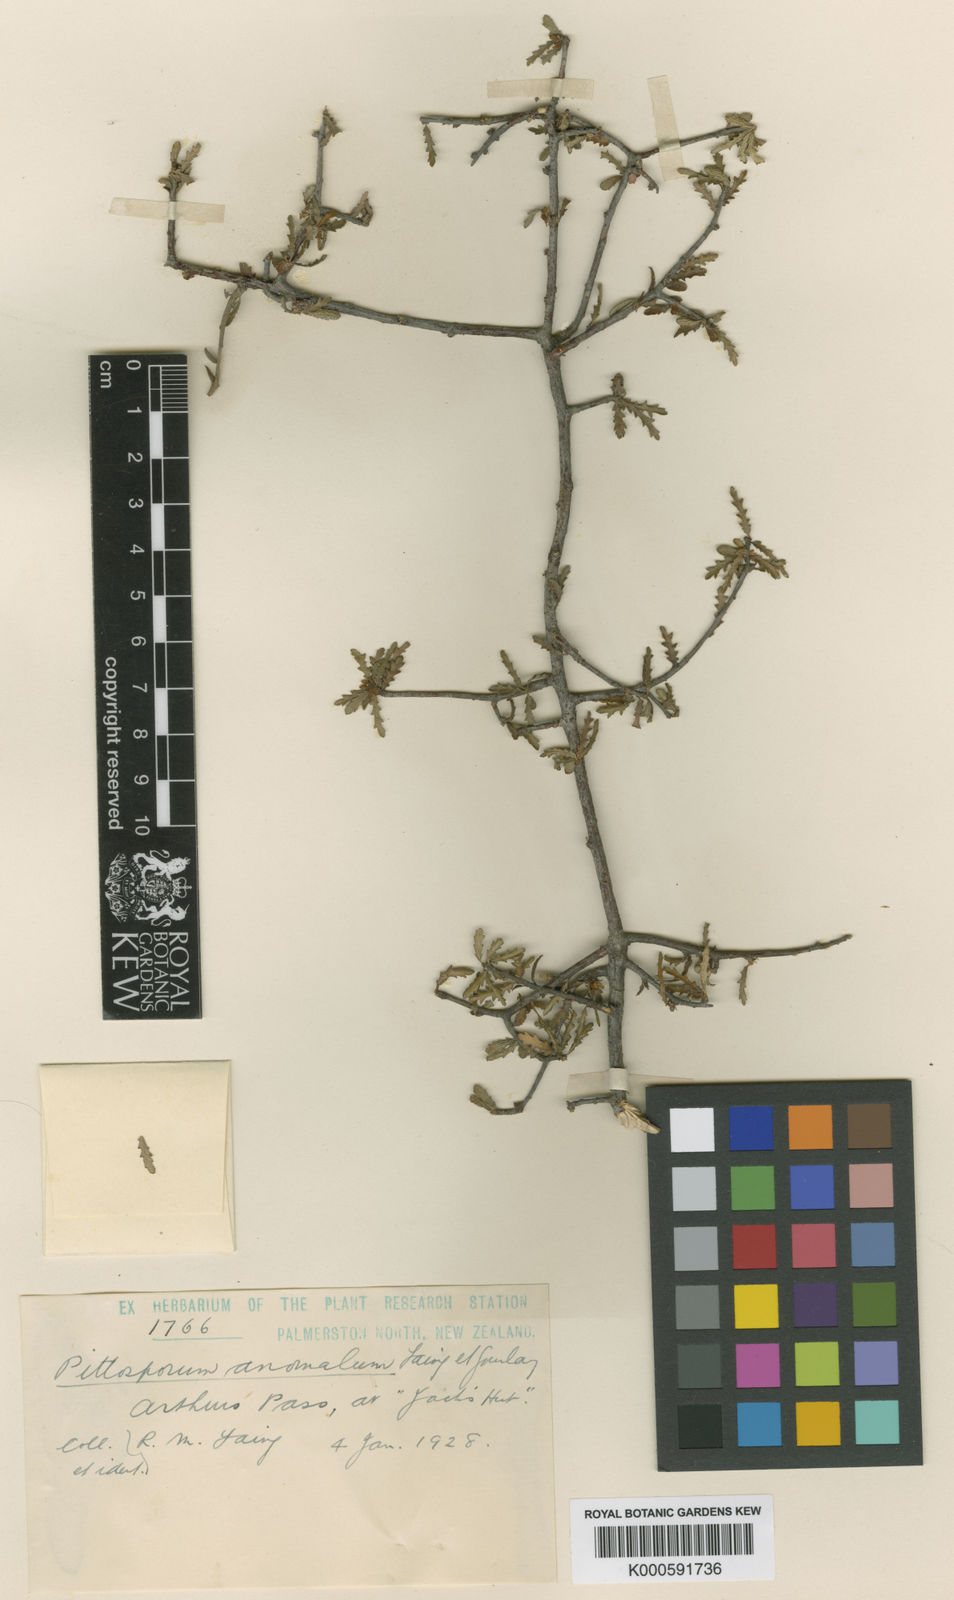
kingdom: Plantae
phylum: Tracheophyta
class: Magnoliopsida
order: Apiales
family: Pittosporaceae
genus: Pittosporum
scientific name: Pittosporum anomalum
